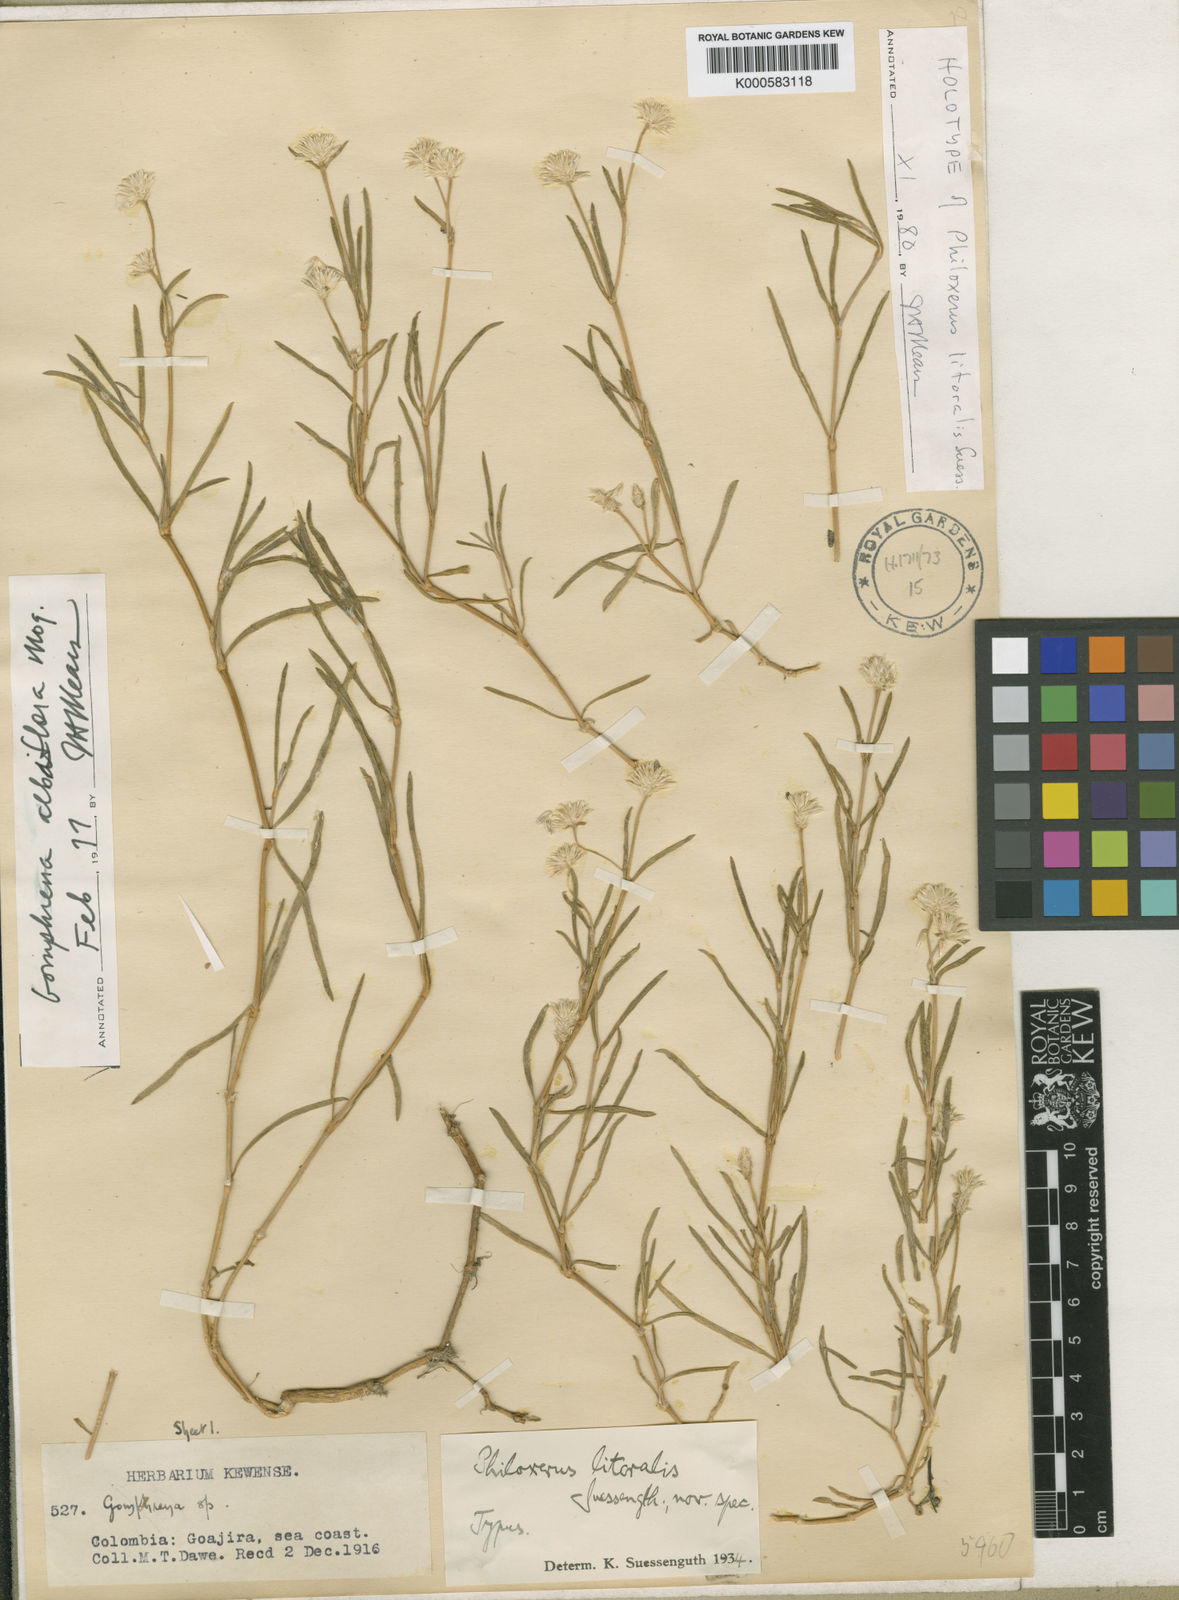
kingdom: Plantae
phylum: Tracheophyta
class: Magnoliopsida
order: Caryophyllales
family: Amaranthaceae
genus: Gomphrena
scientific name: Gomphrena vermicularis
